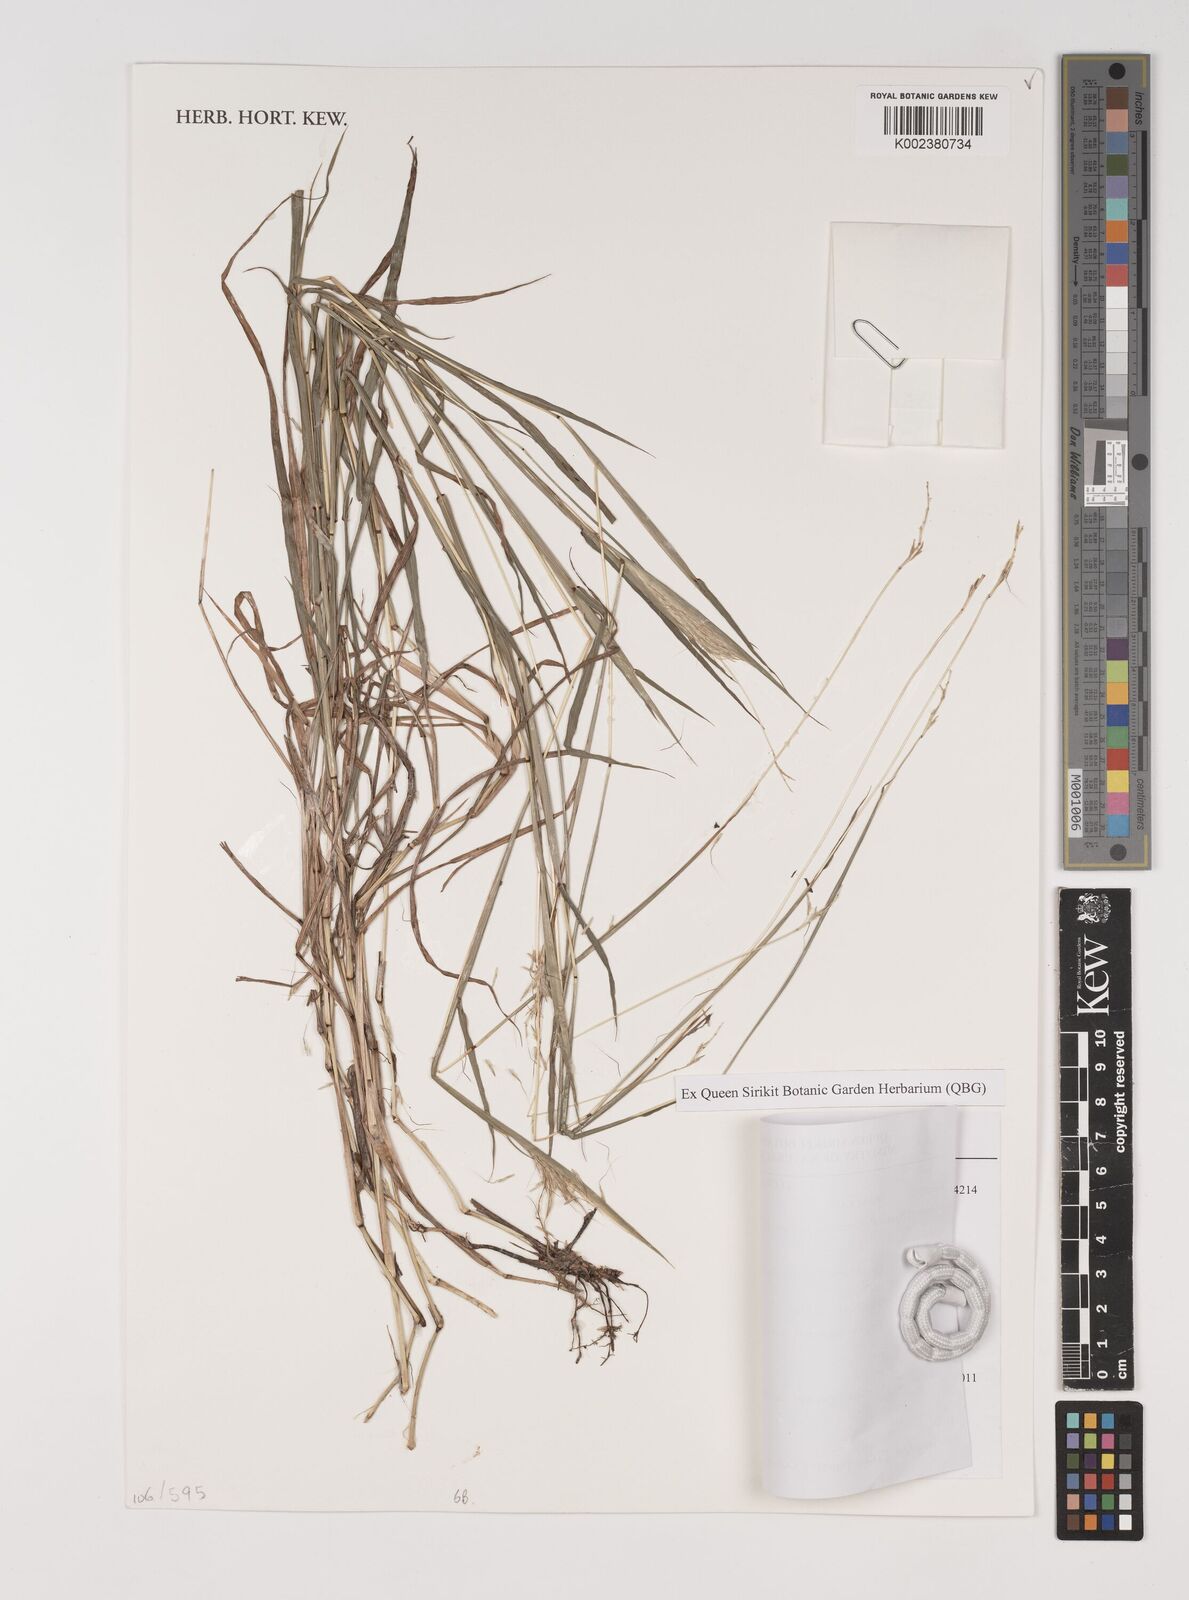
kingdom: Plantae
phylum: Tracheophyta
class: Liliopsida
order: Poales
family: Poaceae
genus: Bothriochloa
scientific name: Bothriochloa pertusa
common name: Pitted beardgrass
